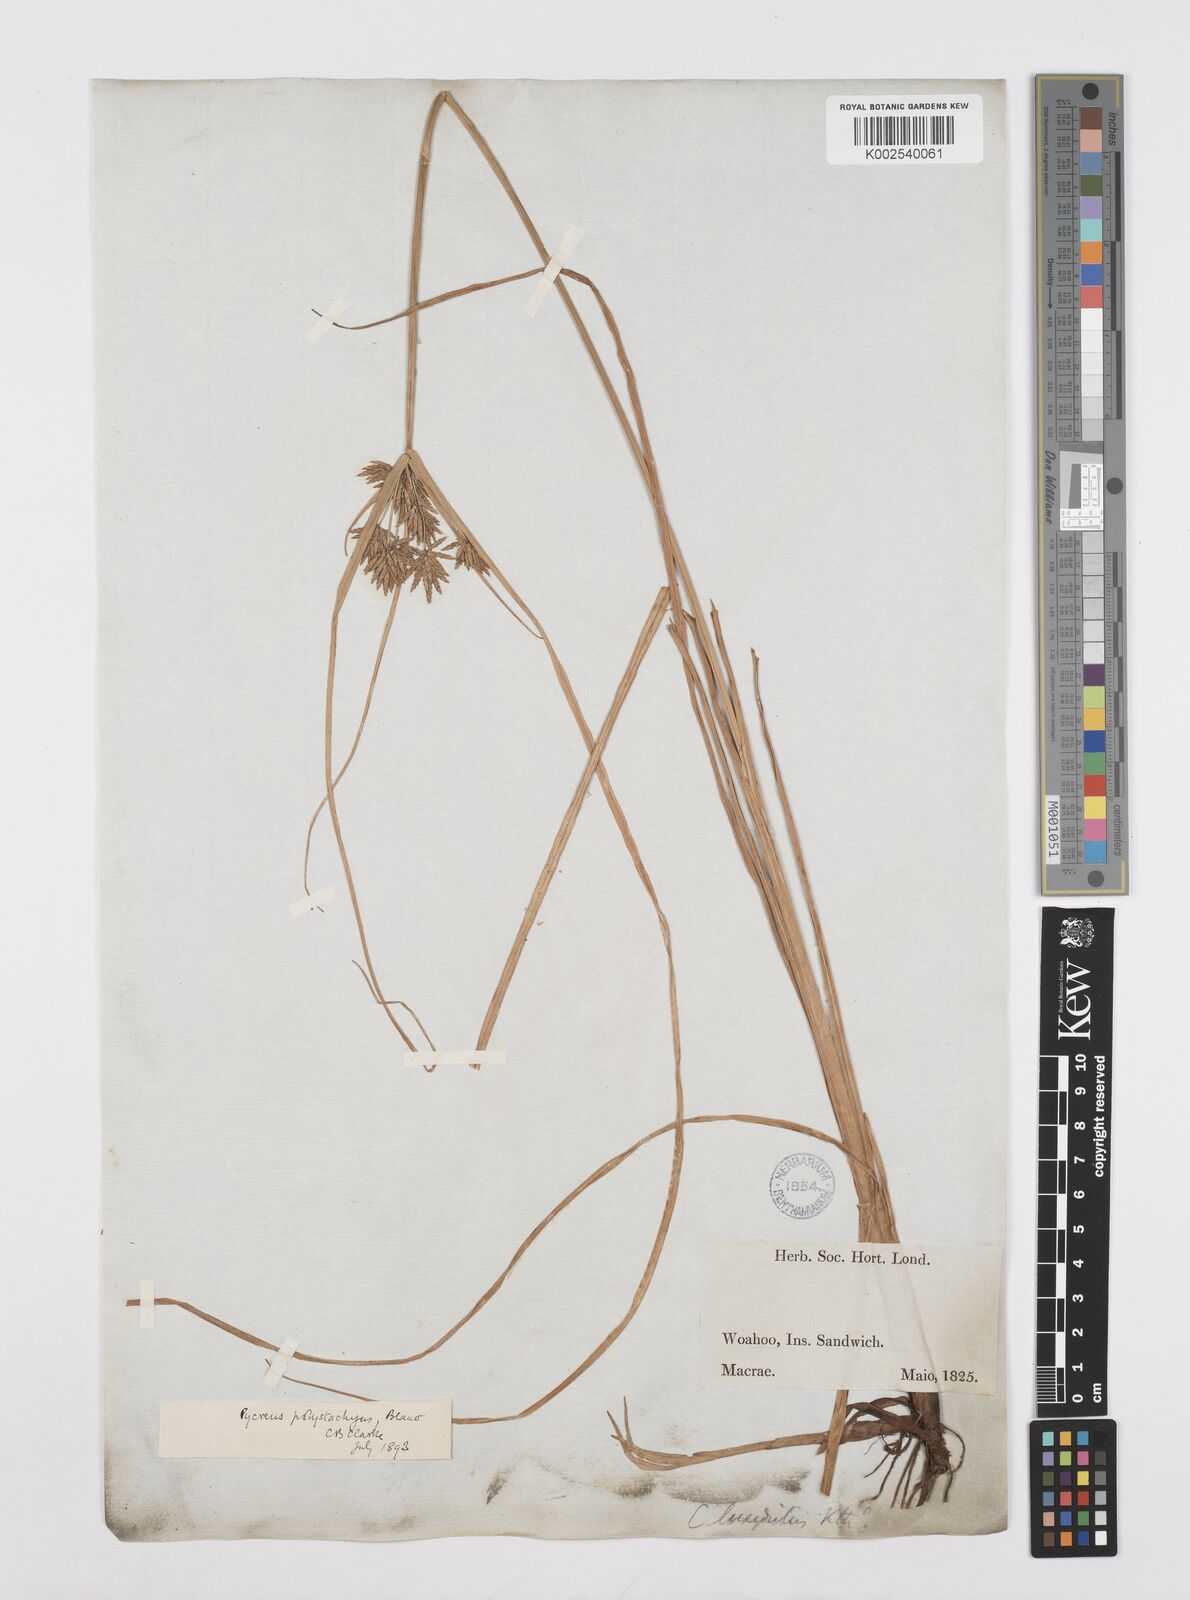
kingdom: Plantae
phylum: Tracheophyta
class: Liliopsida
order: Poales
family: Cyperaceae
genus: Cyperus
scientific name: Cyperus polystachyos
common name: Bunchy flat sedge
